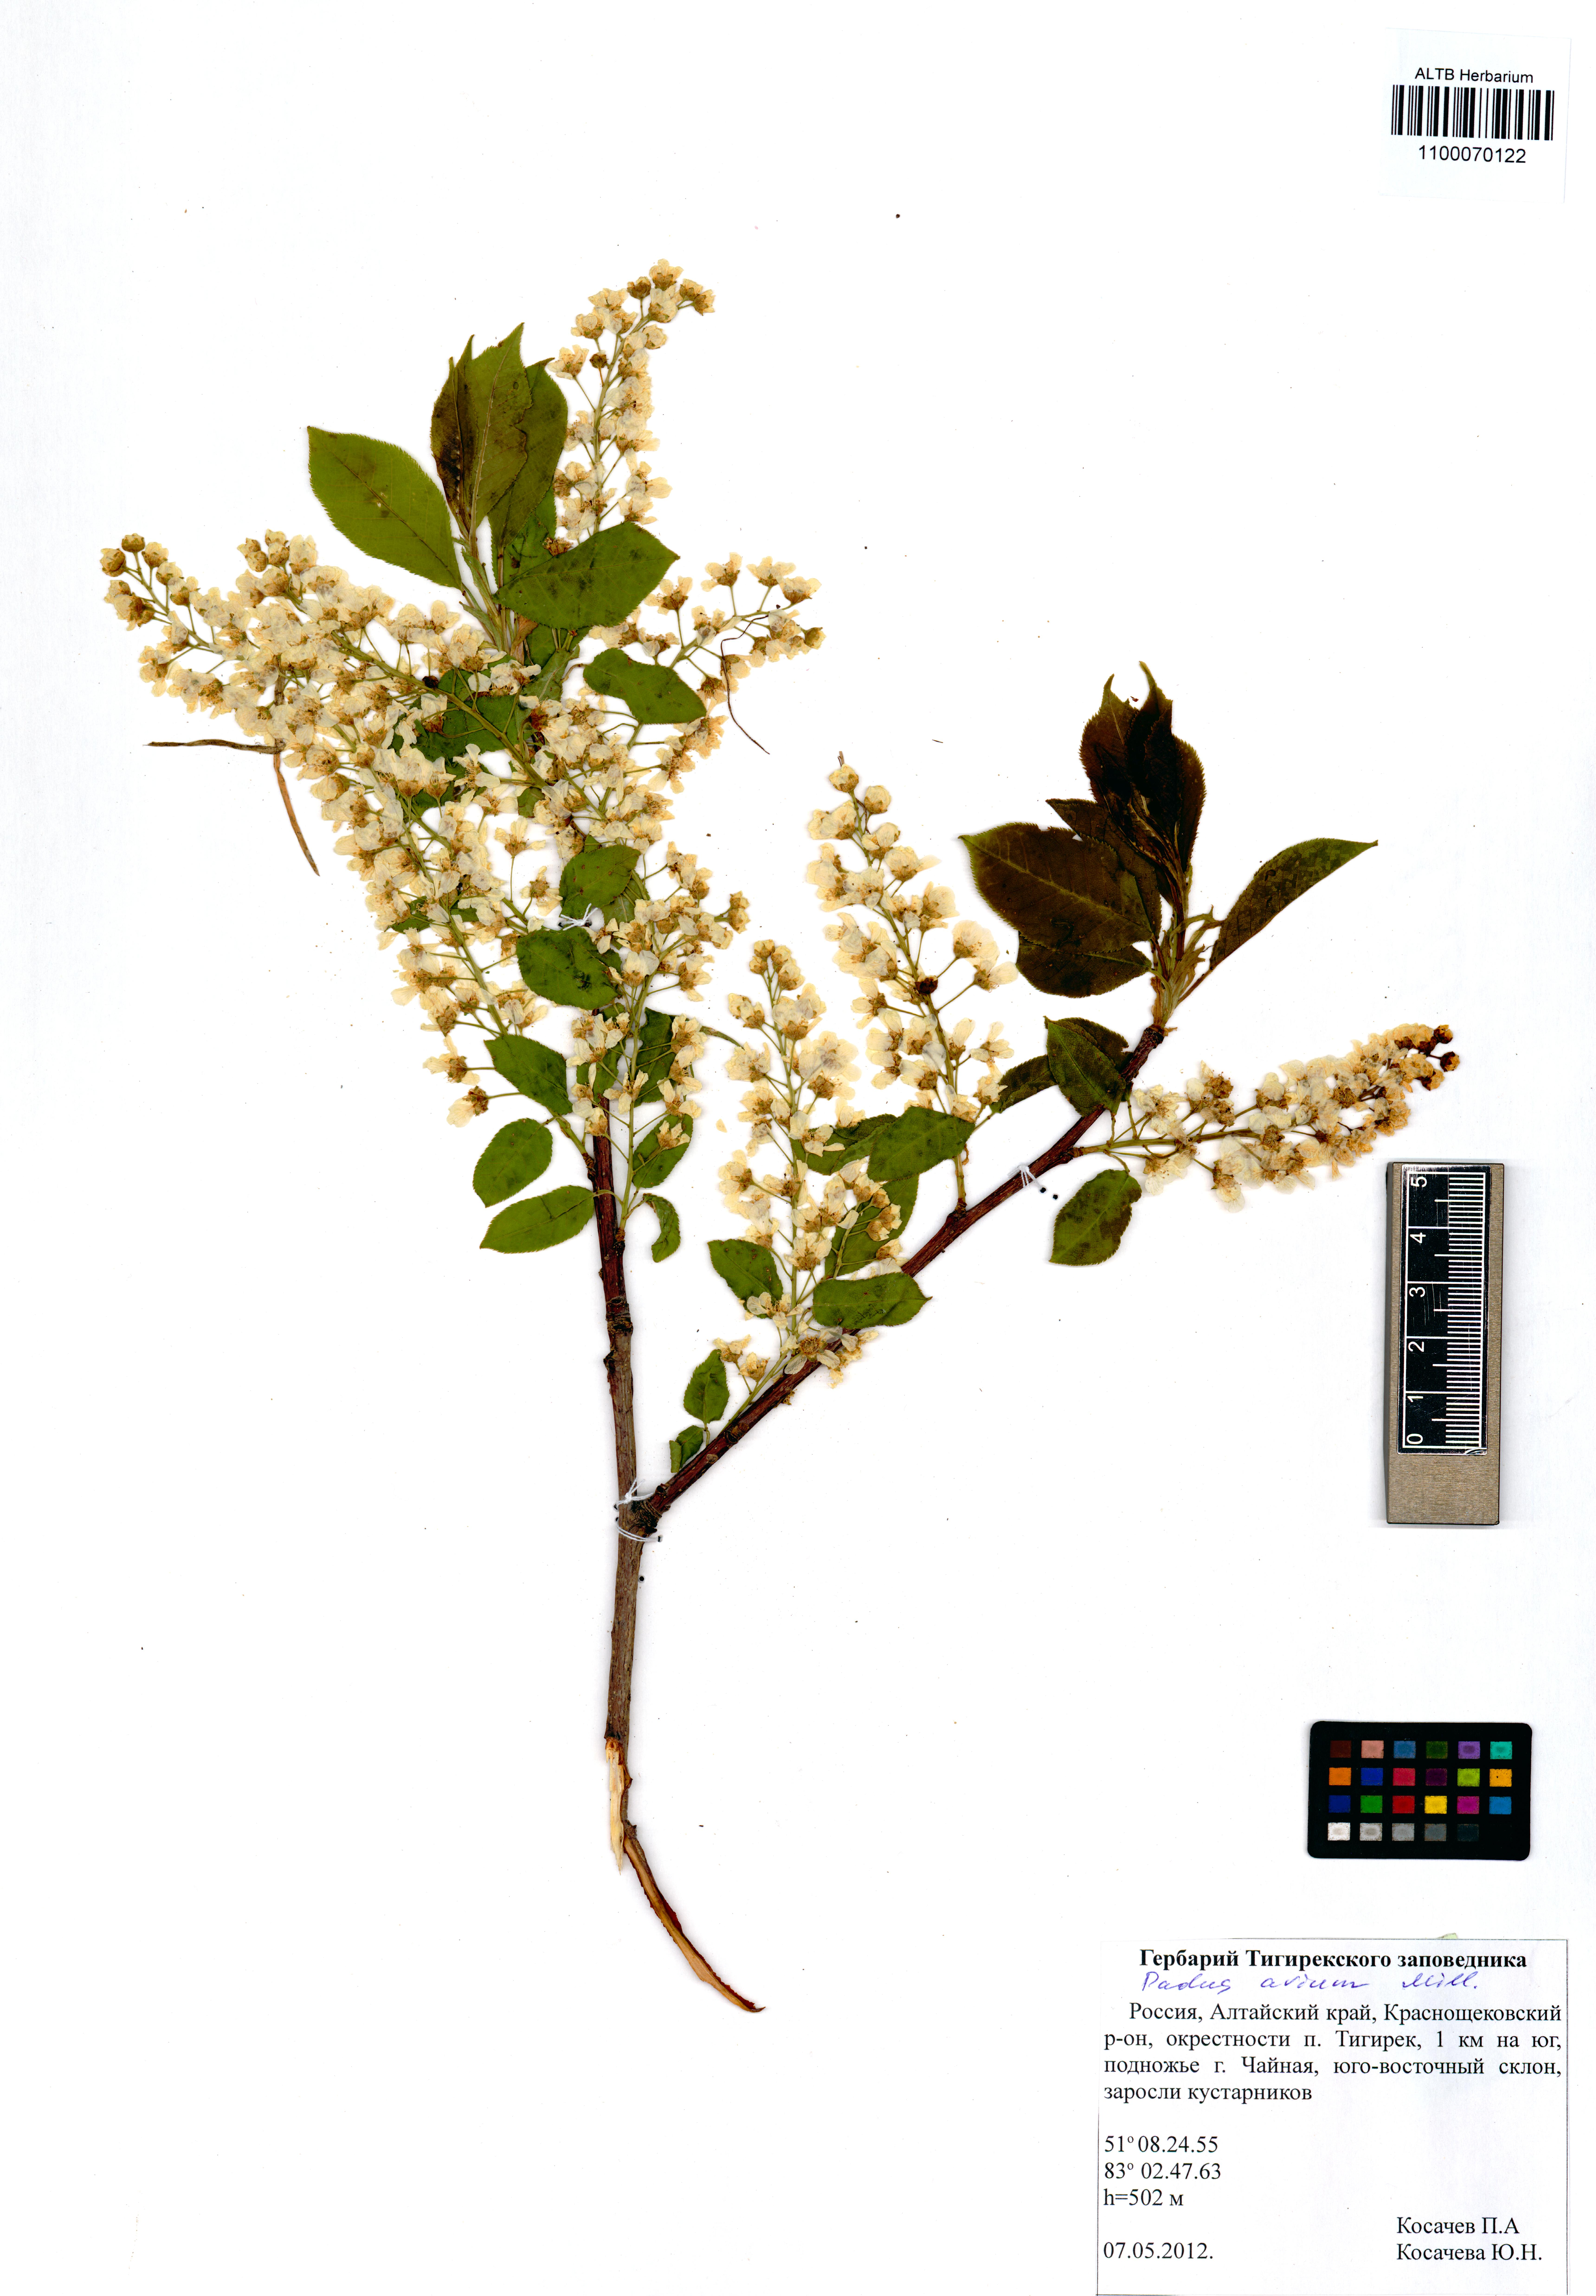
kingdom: Plantae
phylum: Tracheophyta
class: Magnoliopsida
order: Rosales
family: Rosaceae
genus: Prunus
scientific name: Prunus padus
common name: Bird cherry
